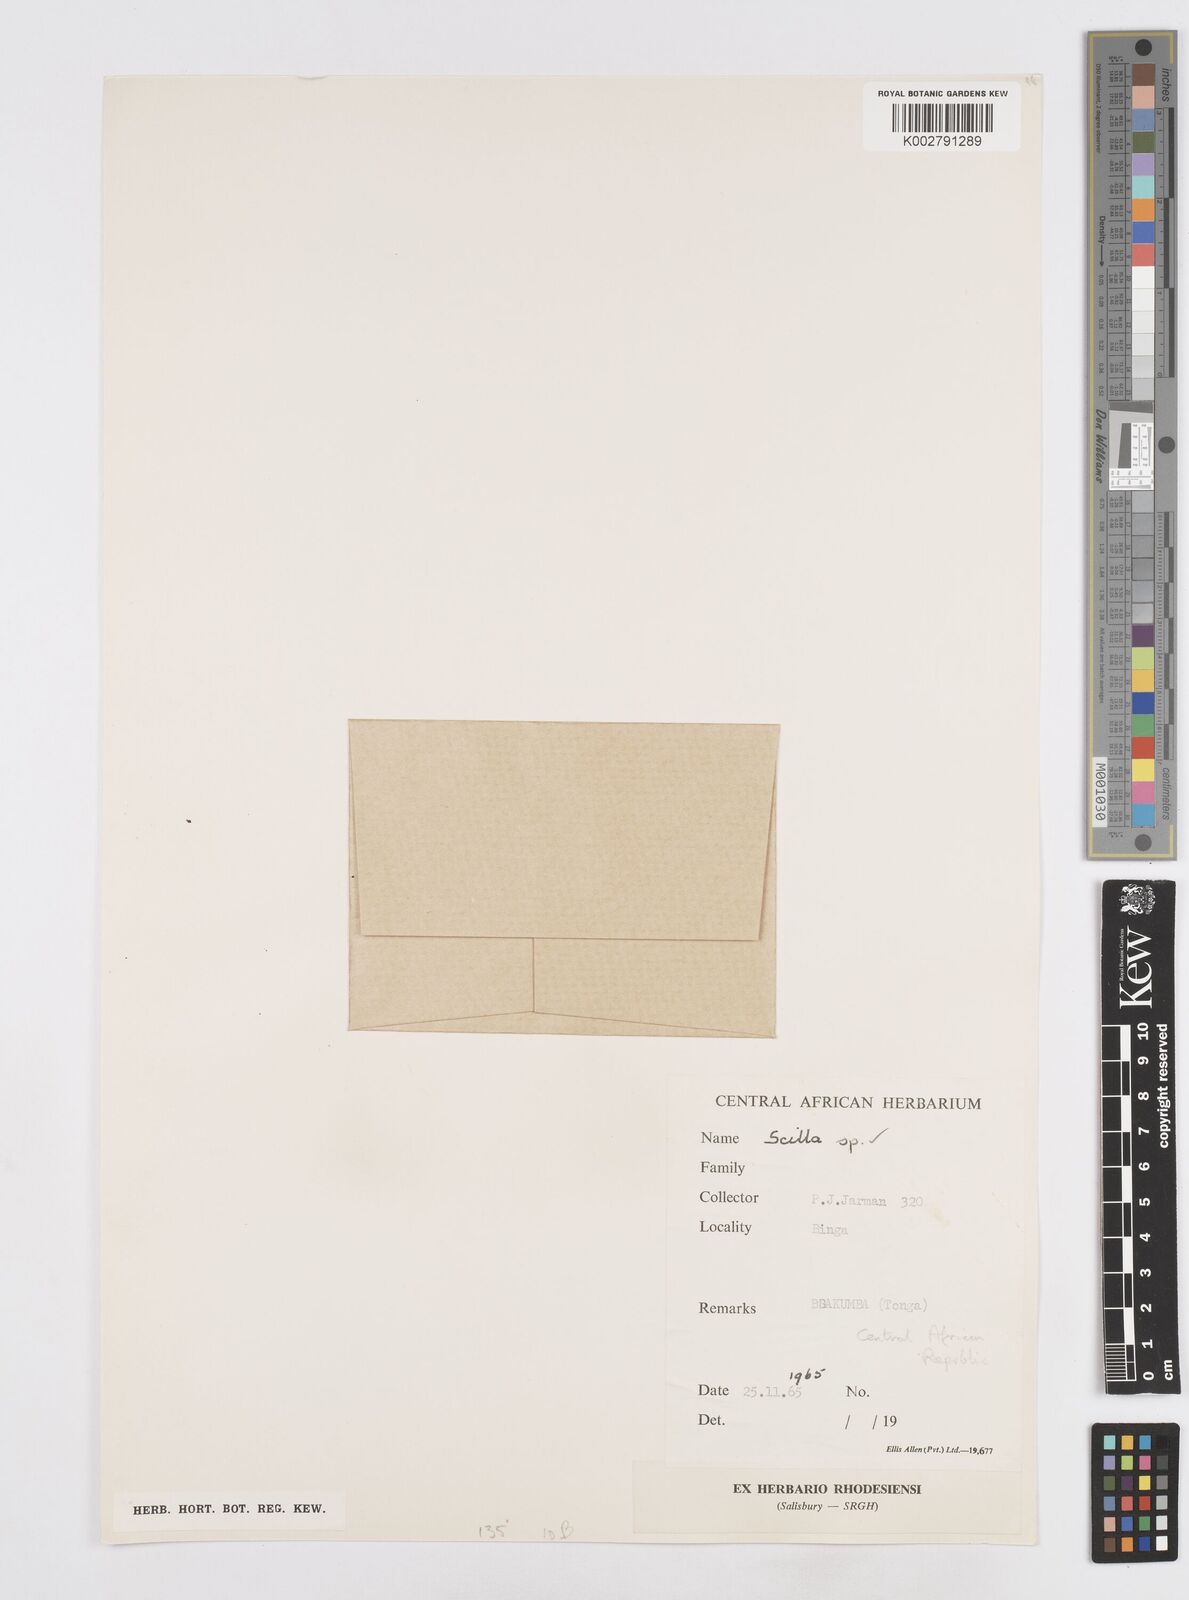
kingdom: Plantae
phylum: Tracheophyta
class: Liliopsida
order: Asparagales
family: Asparagaceae
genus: Scilla
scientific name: Scilla
